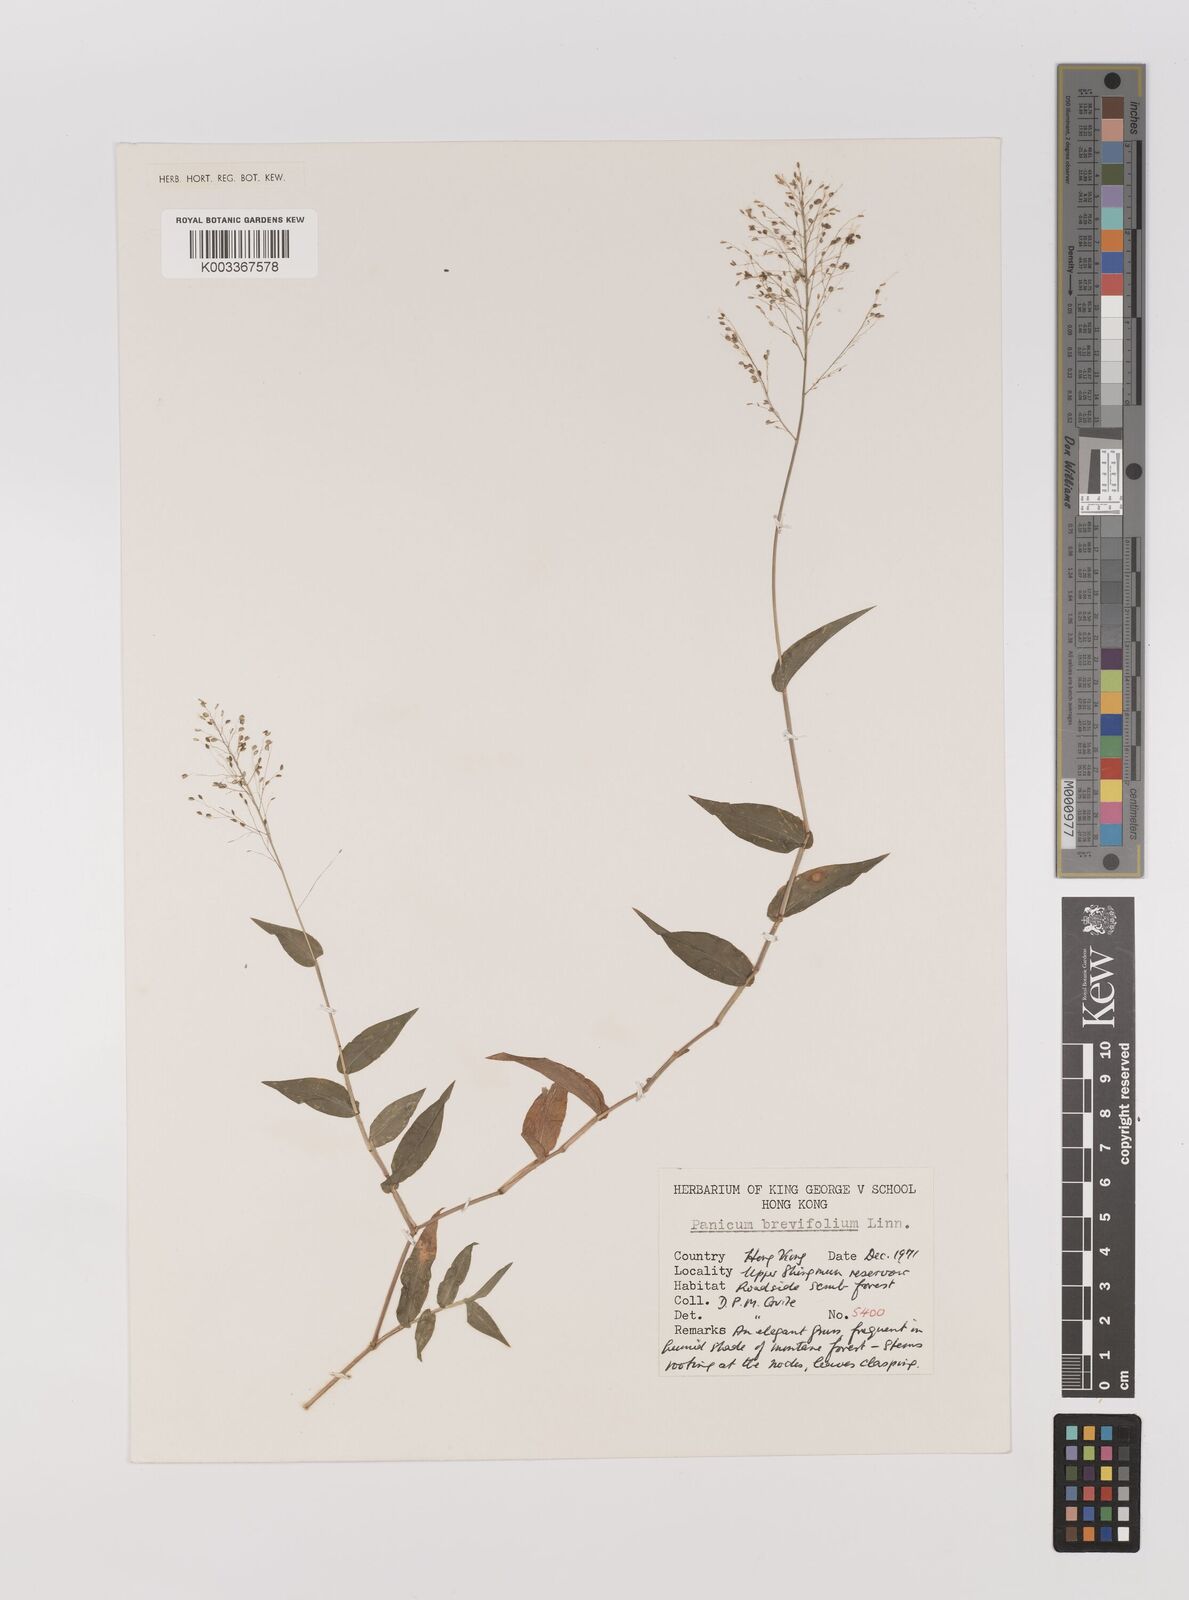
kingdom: Plantae
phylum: Tracheophyta
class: Liliopsida
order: Poales
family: Poaceae
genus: Panicum
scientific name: Panicum brevifolium
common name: Shortleaf panic grass
